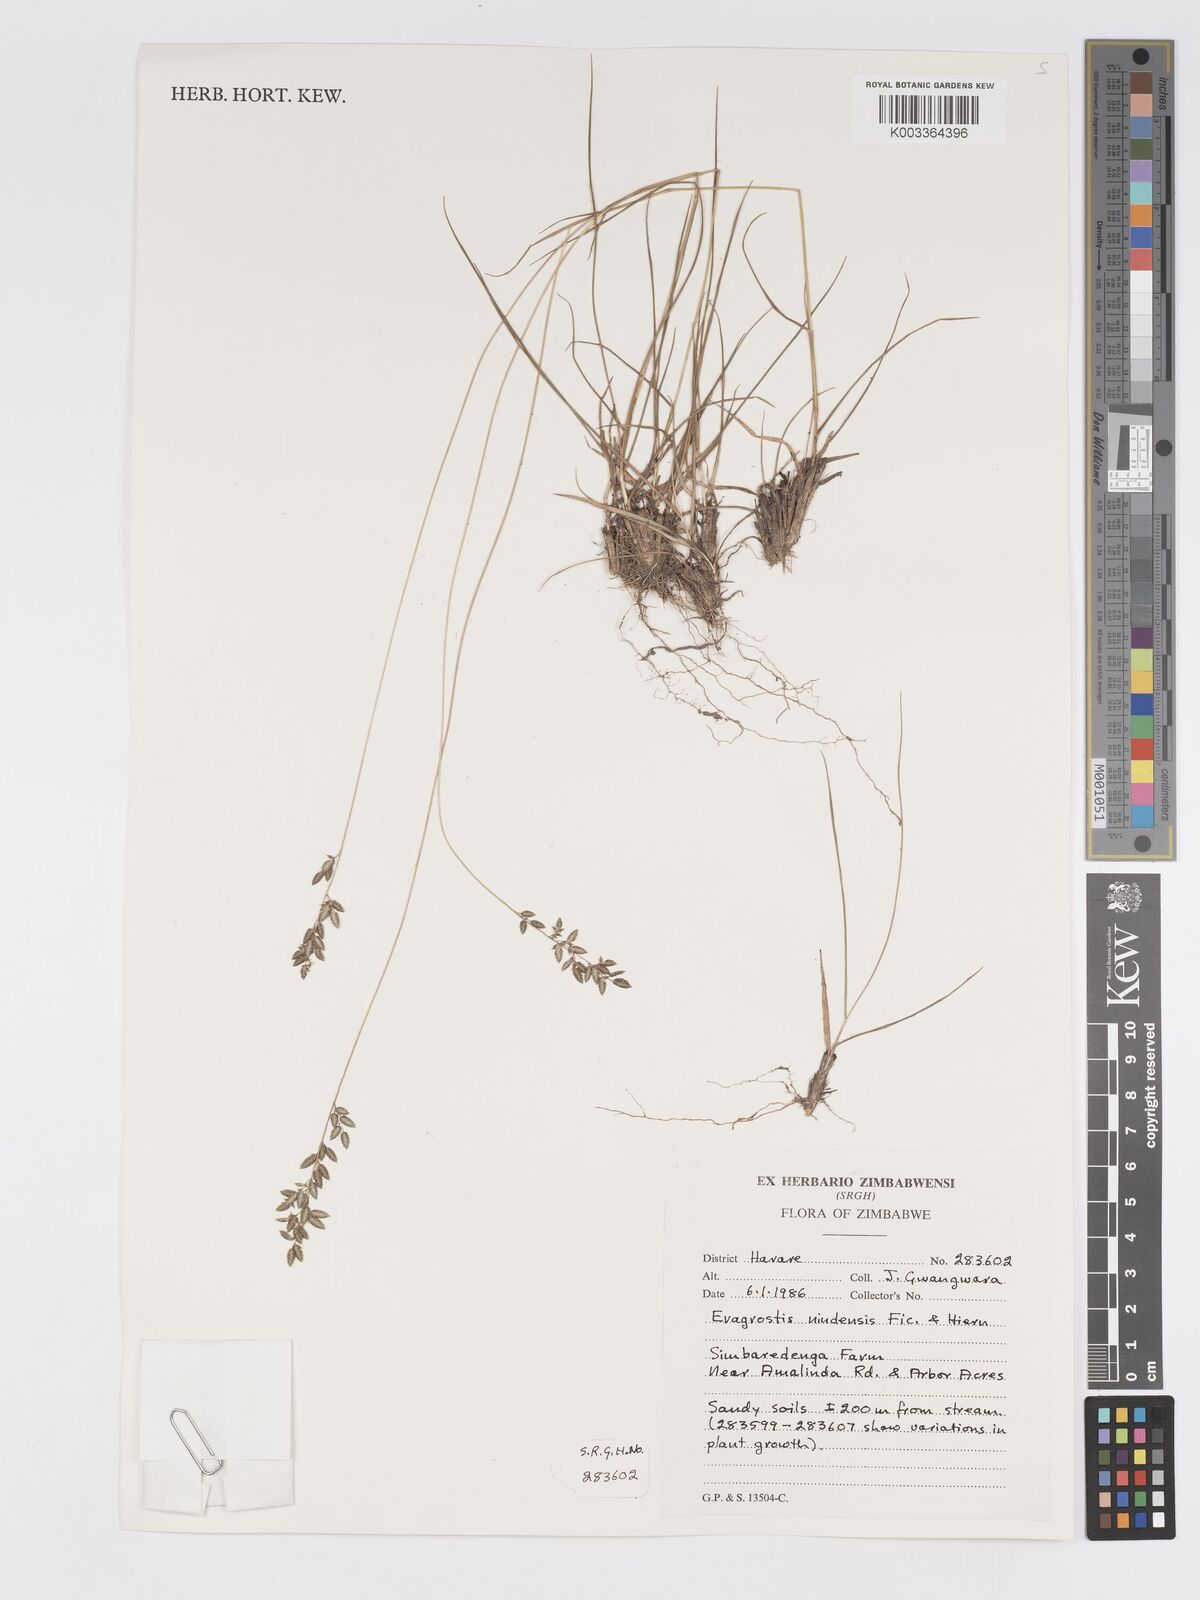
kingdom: Plantae
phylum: Tracheophyta
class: Liliopsida
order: Poales
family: Poaceae
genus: Eragrostis
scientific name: Eragrostis racemosa
